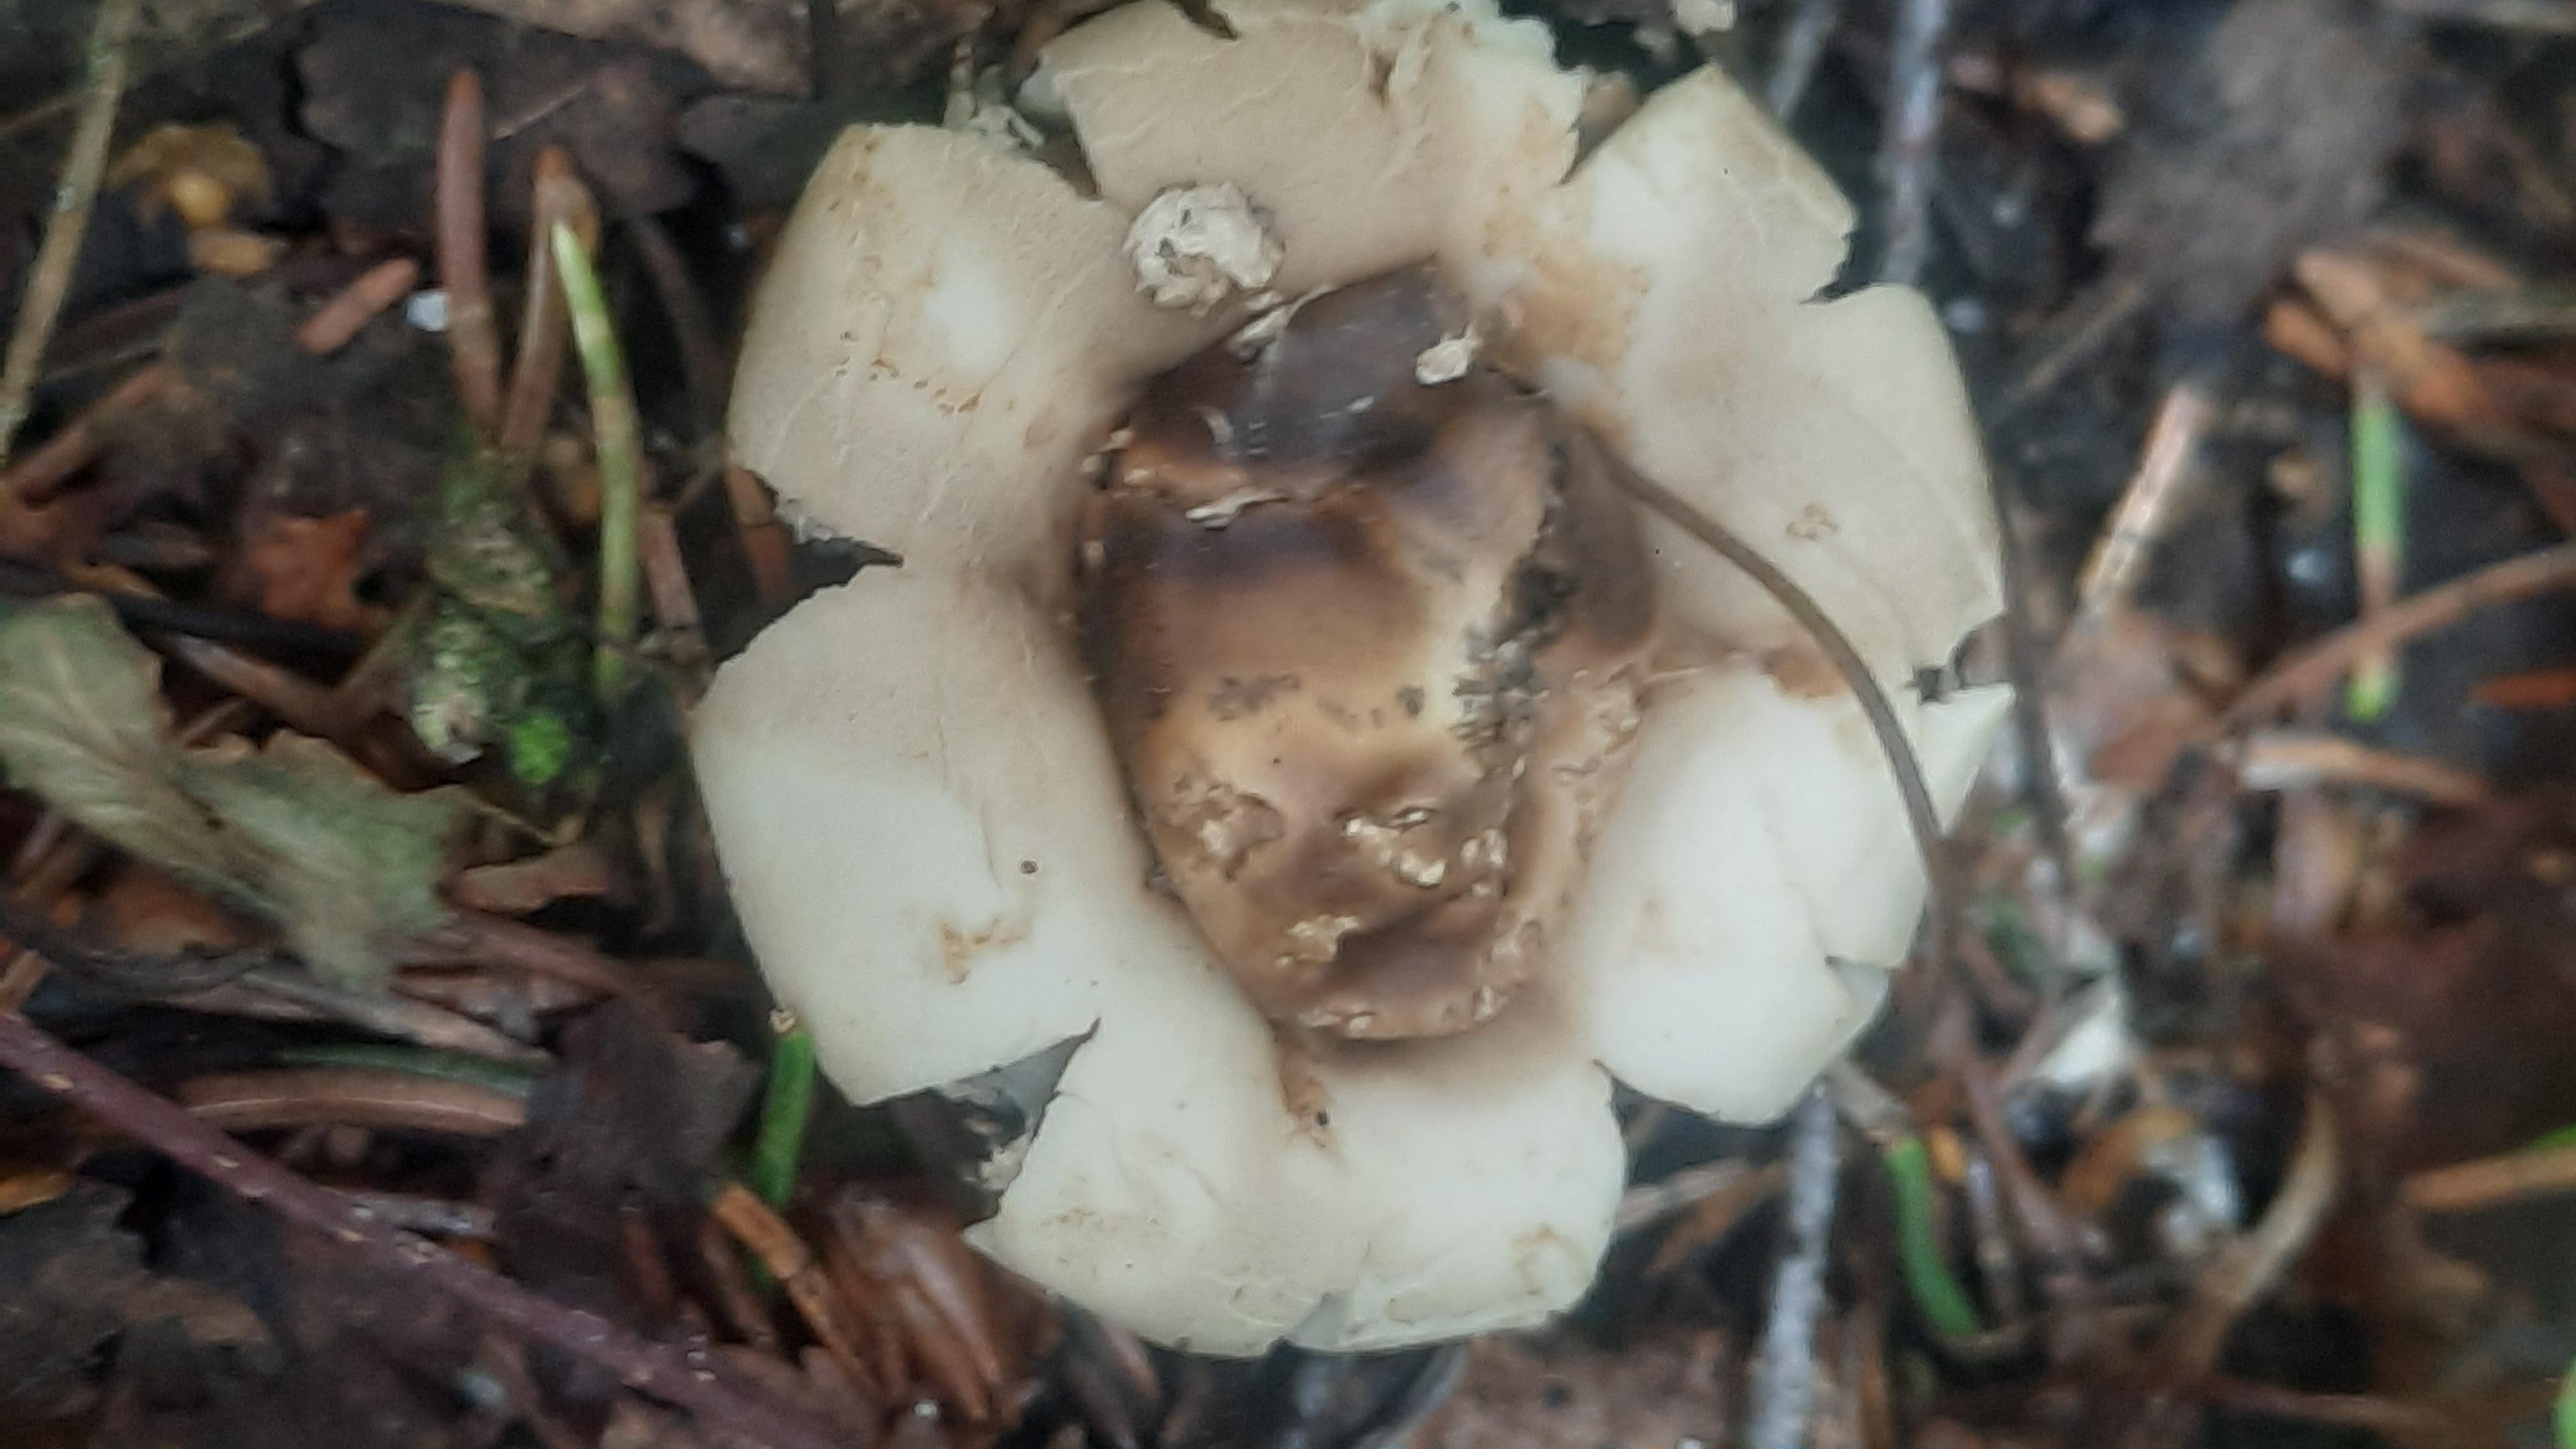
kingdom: Fungi
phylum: Basidiomycota
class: Agaricomycetes
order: Geastrales
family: Geastraceae
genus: Geastrum
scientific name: Geastrum fimbriatum
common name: frynset stjernebold
